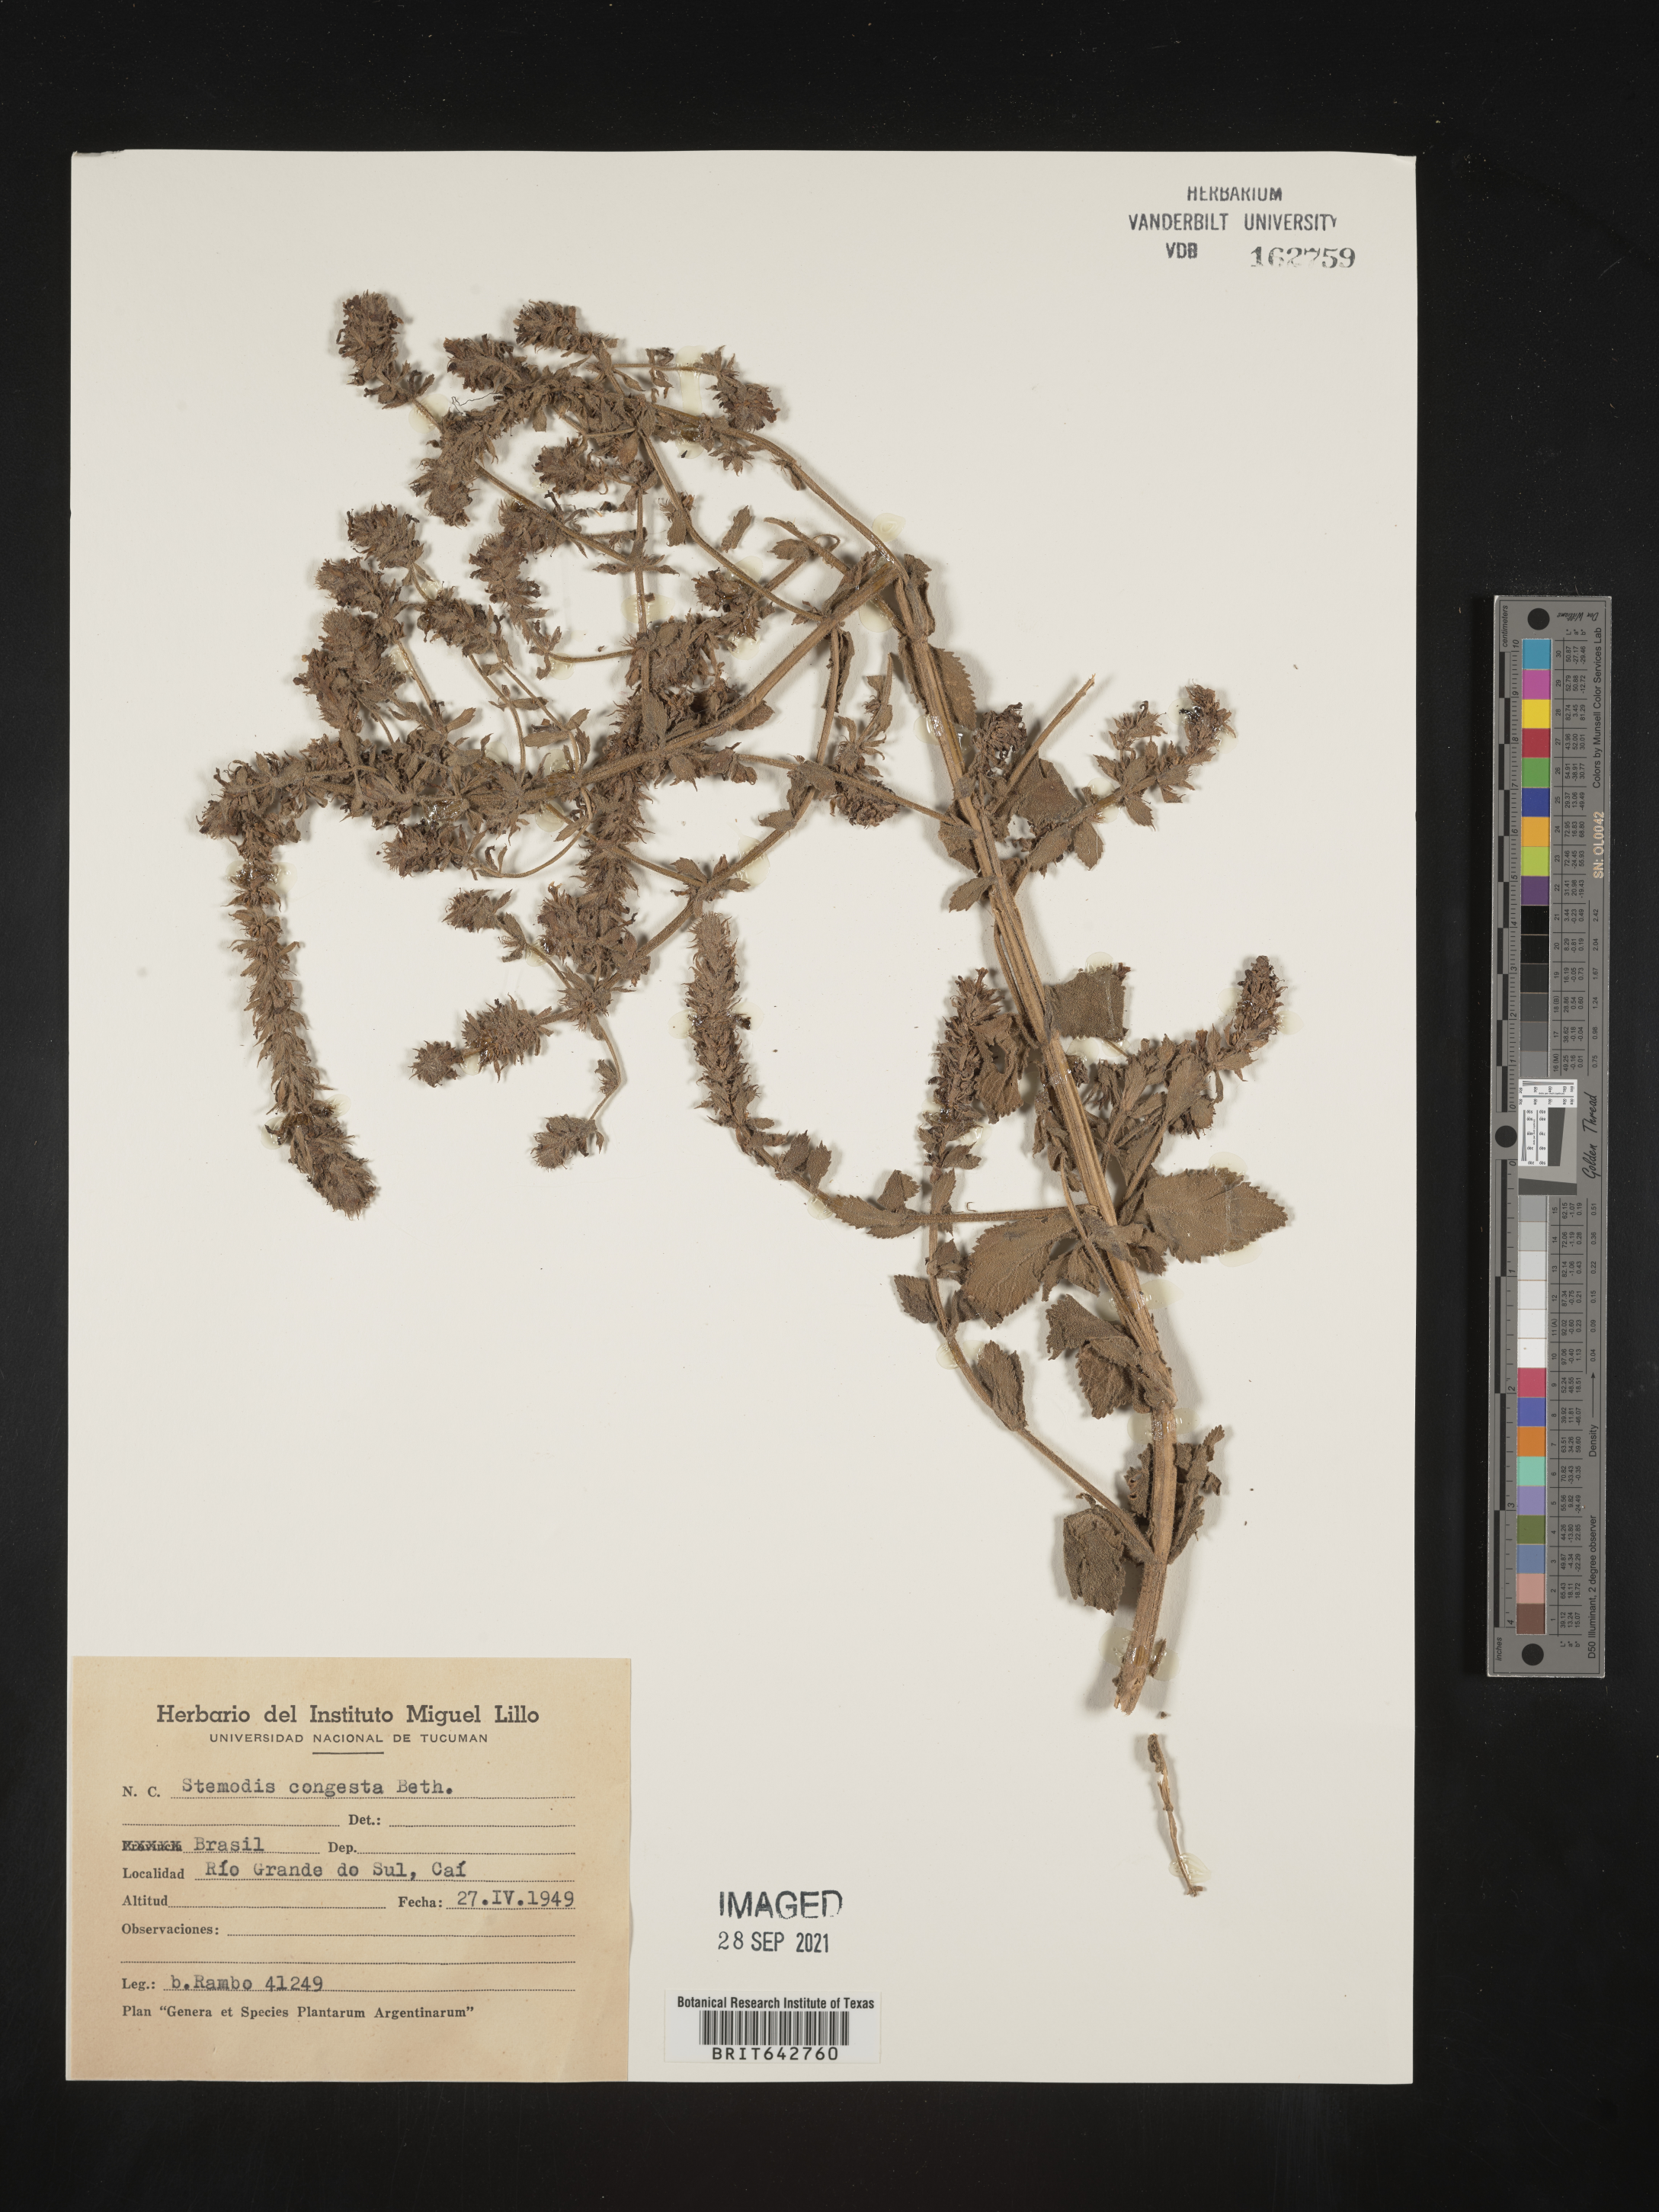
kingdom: Plantae
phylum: Tracheophyta
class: Magnoliopsida
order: Lamiales
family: Plantaginaceae
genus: Stemodia
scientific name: Stemodia
